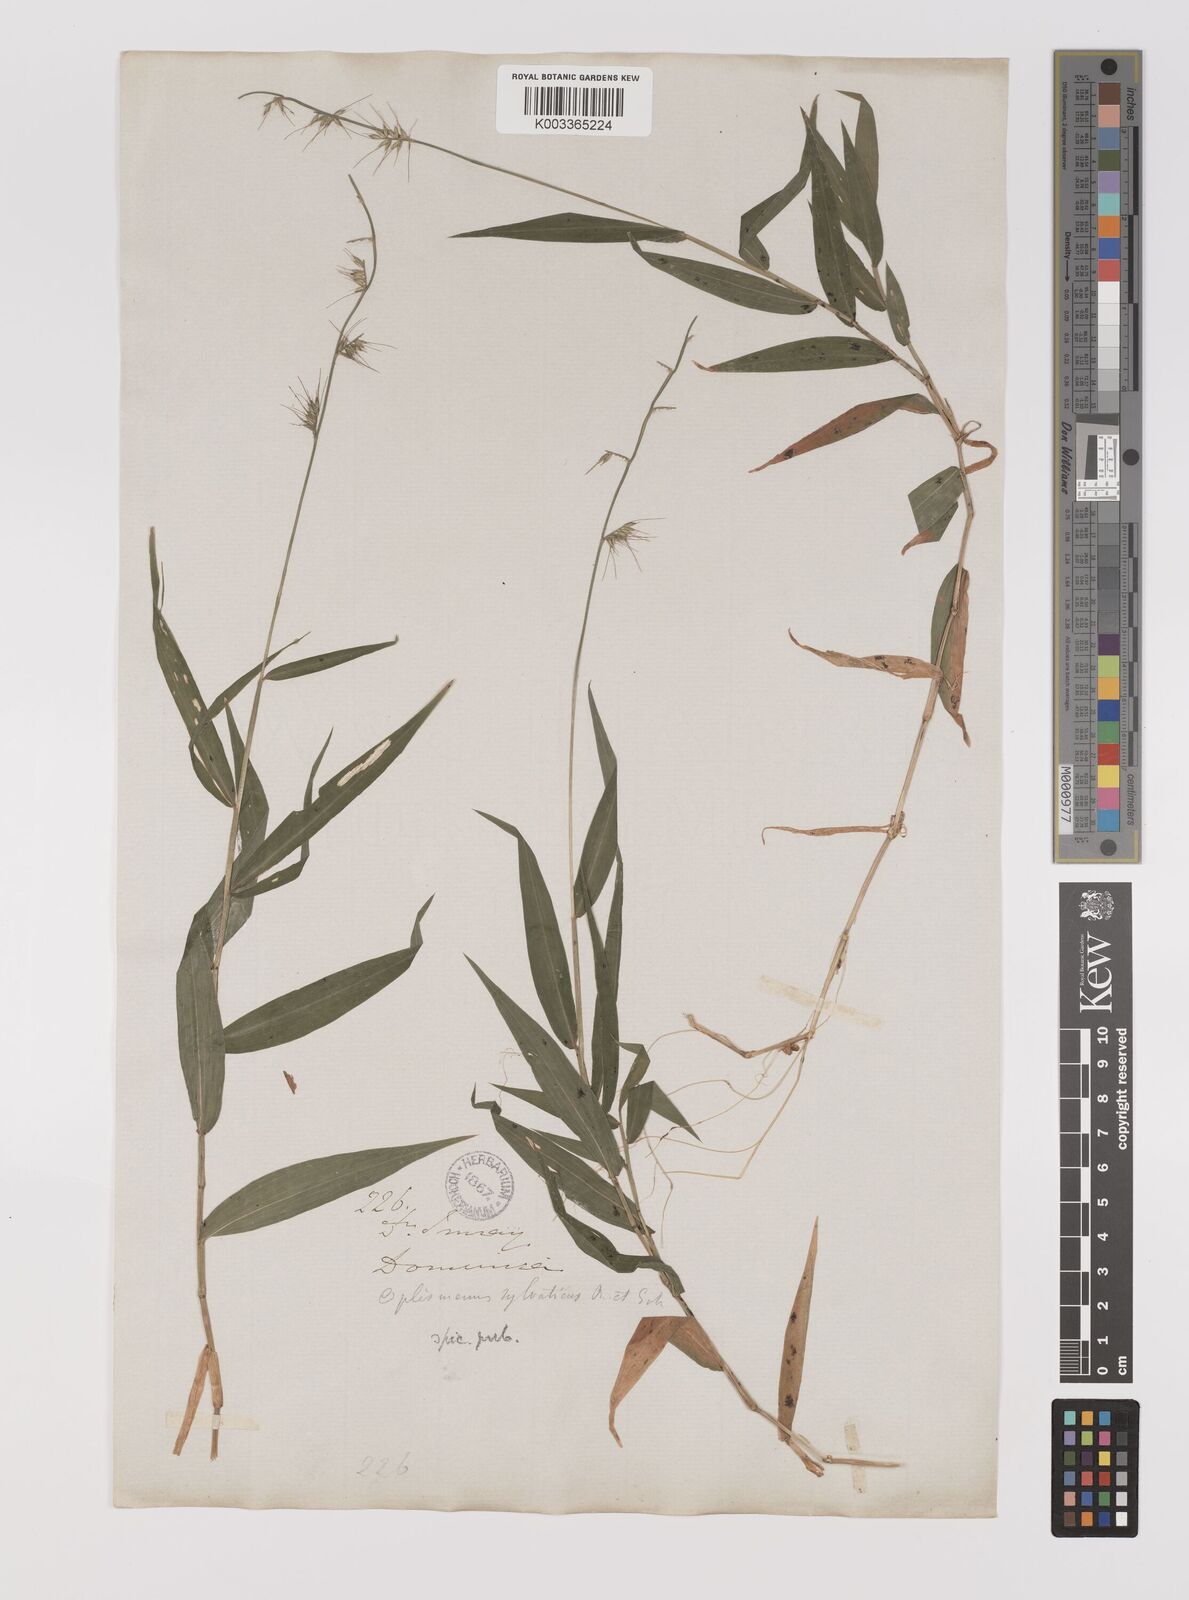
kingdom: Plantae
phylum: Tracheophyta
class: Liliopsida
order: Poales
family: Poaceae
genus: Oplismenus
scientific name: Oplismenus hirtellus
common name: Basketgrass
